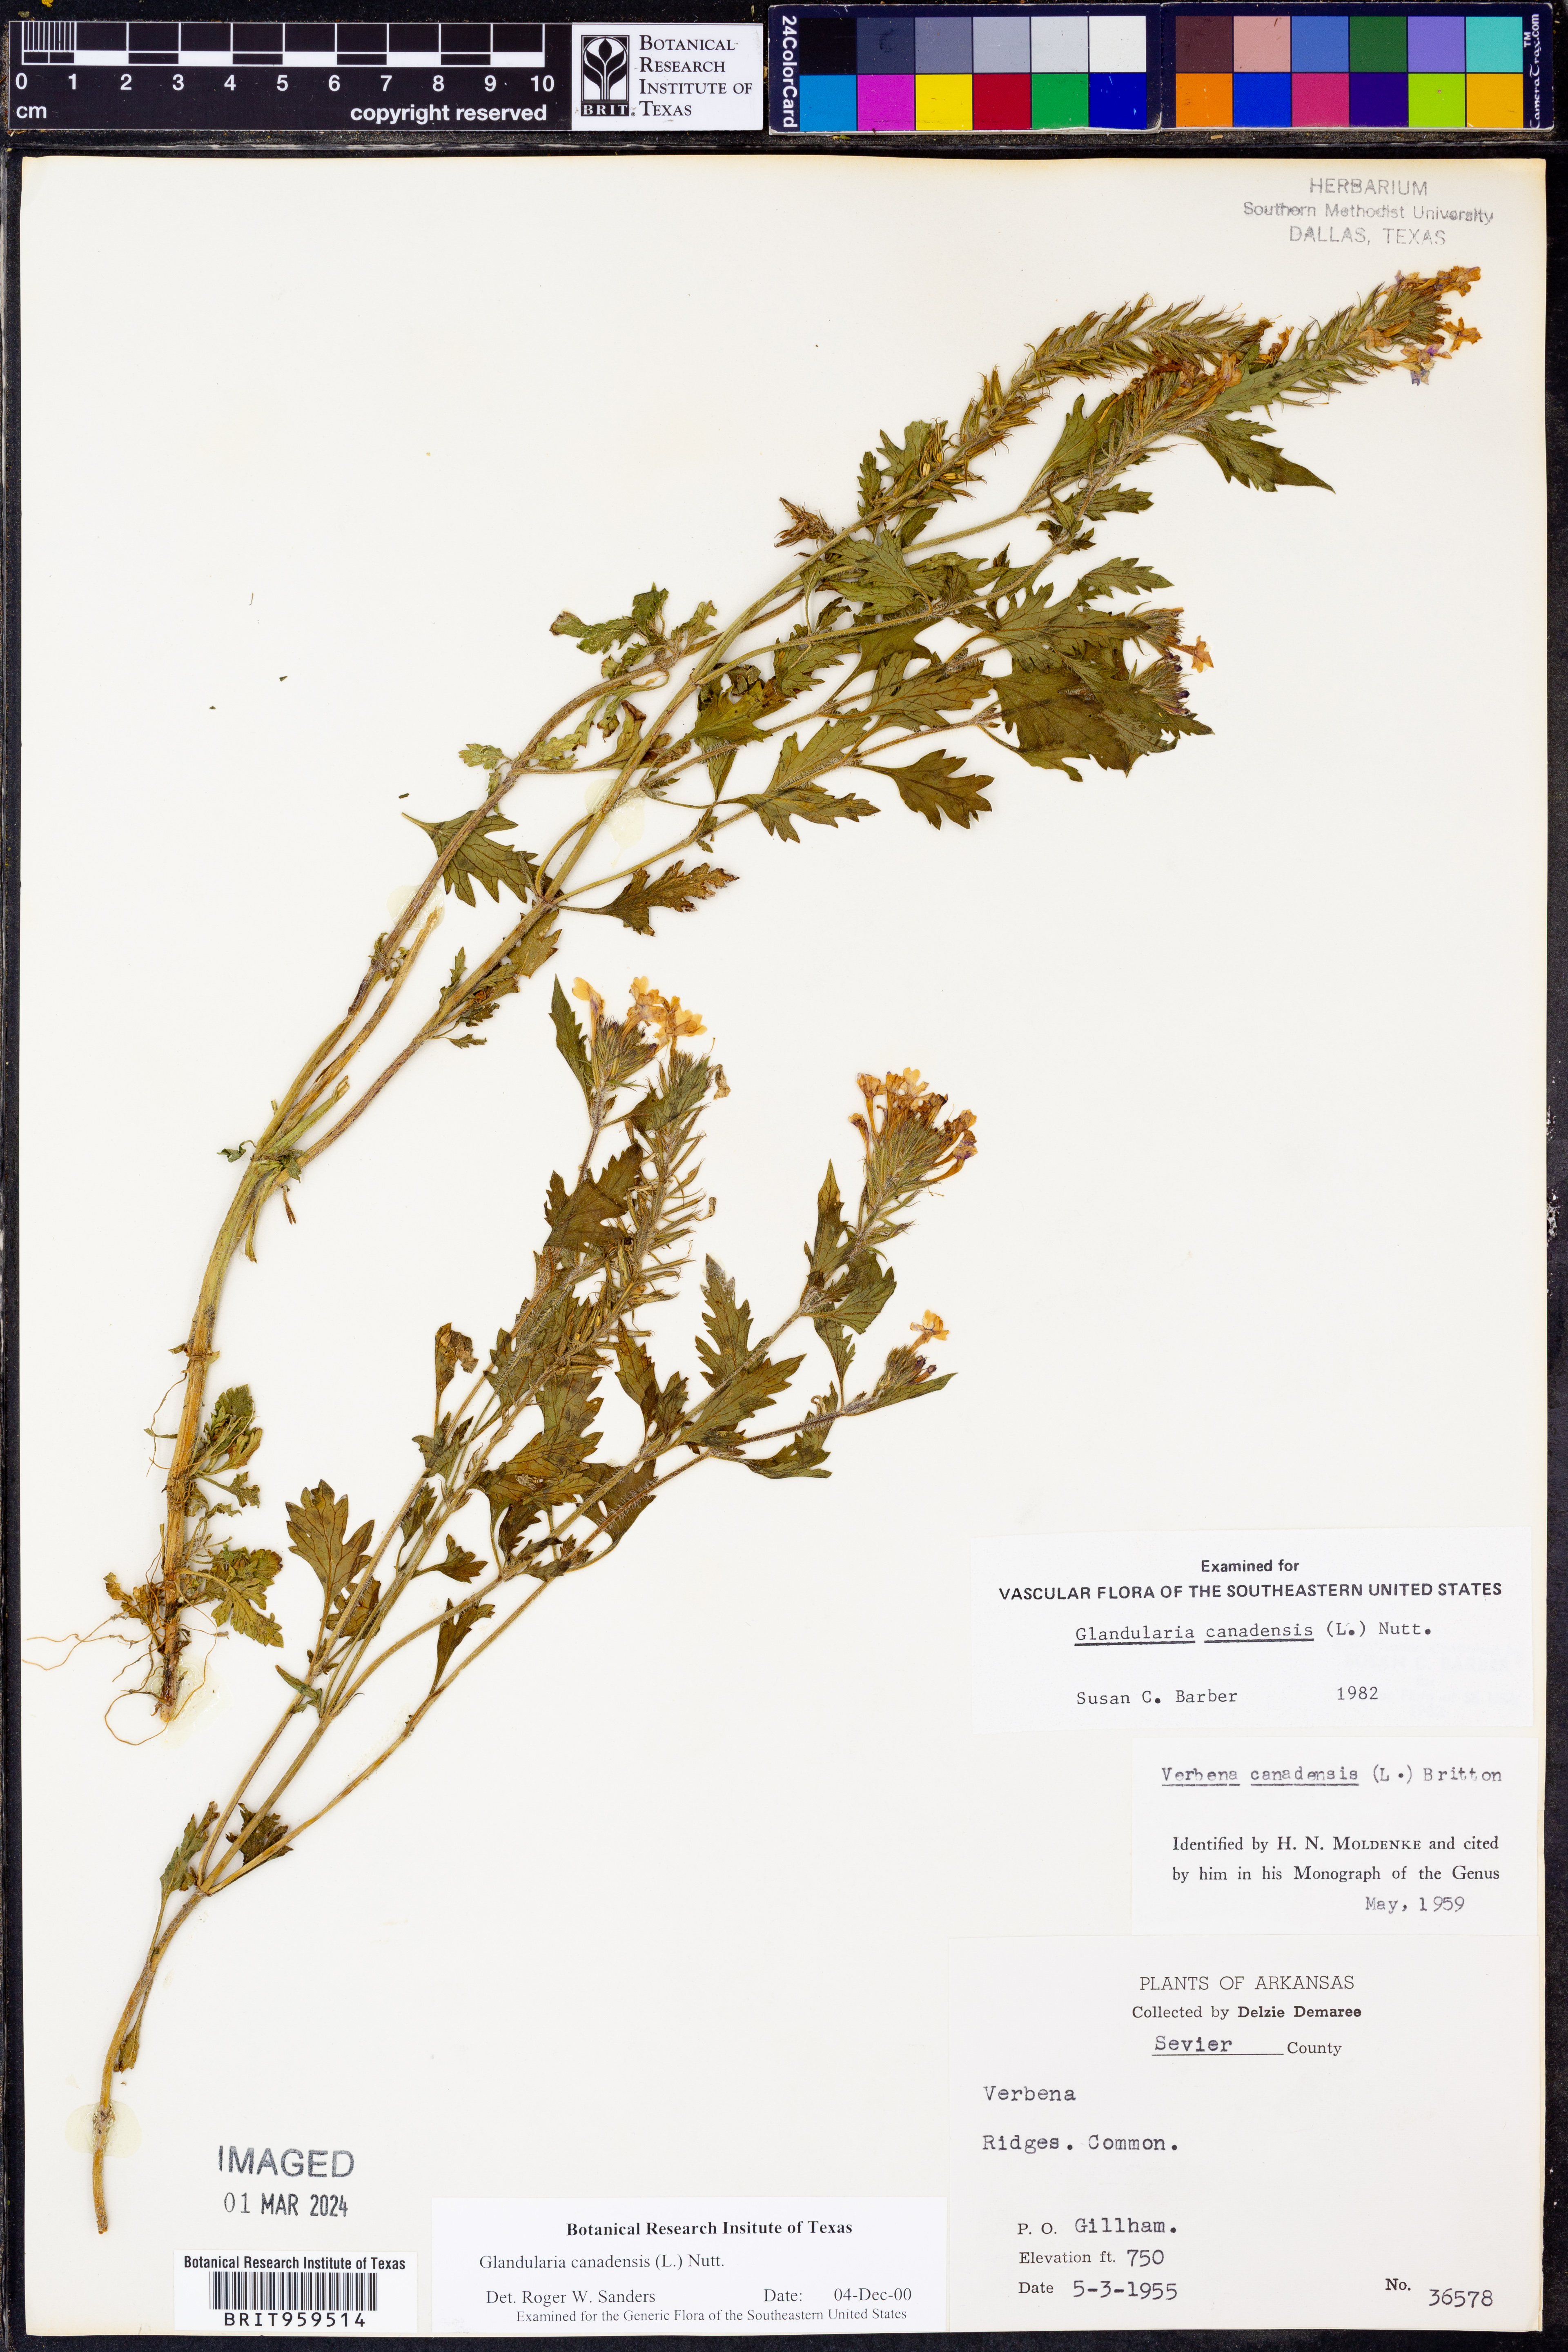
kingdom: Plantae
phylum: Tracheophyta
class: Magnoliopsida
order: Lamiales
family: Verbenaceae
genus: Verbena
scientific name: Verbena canadensis
